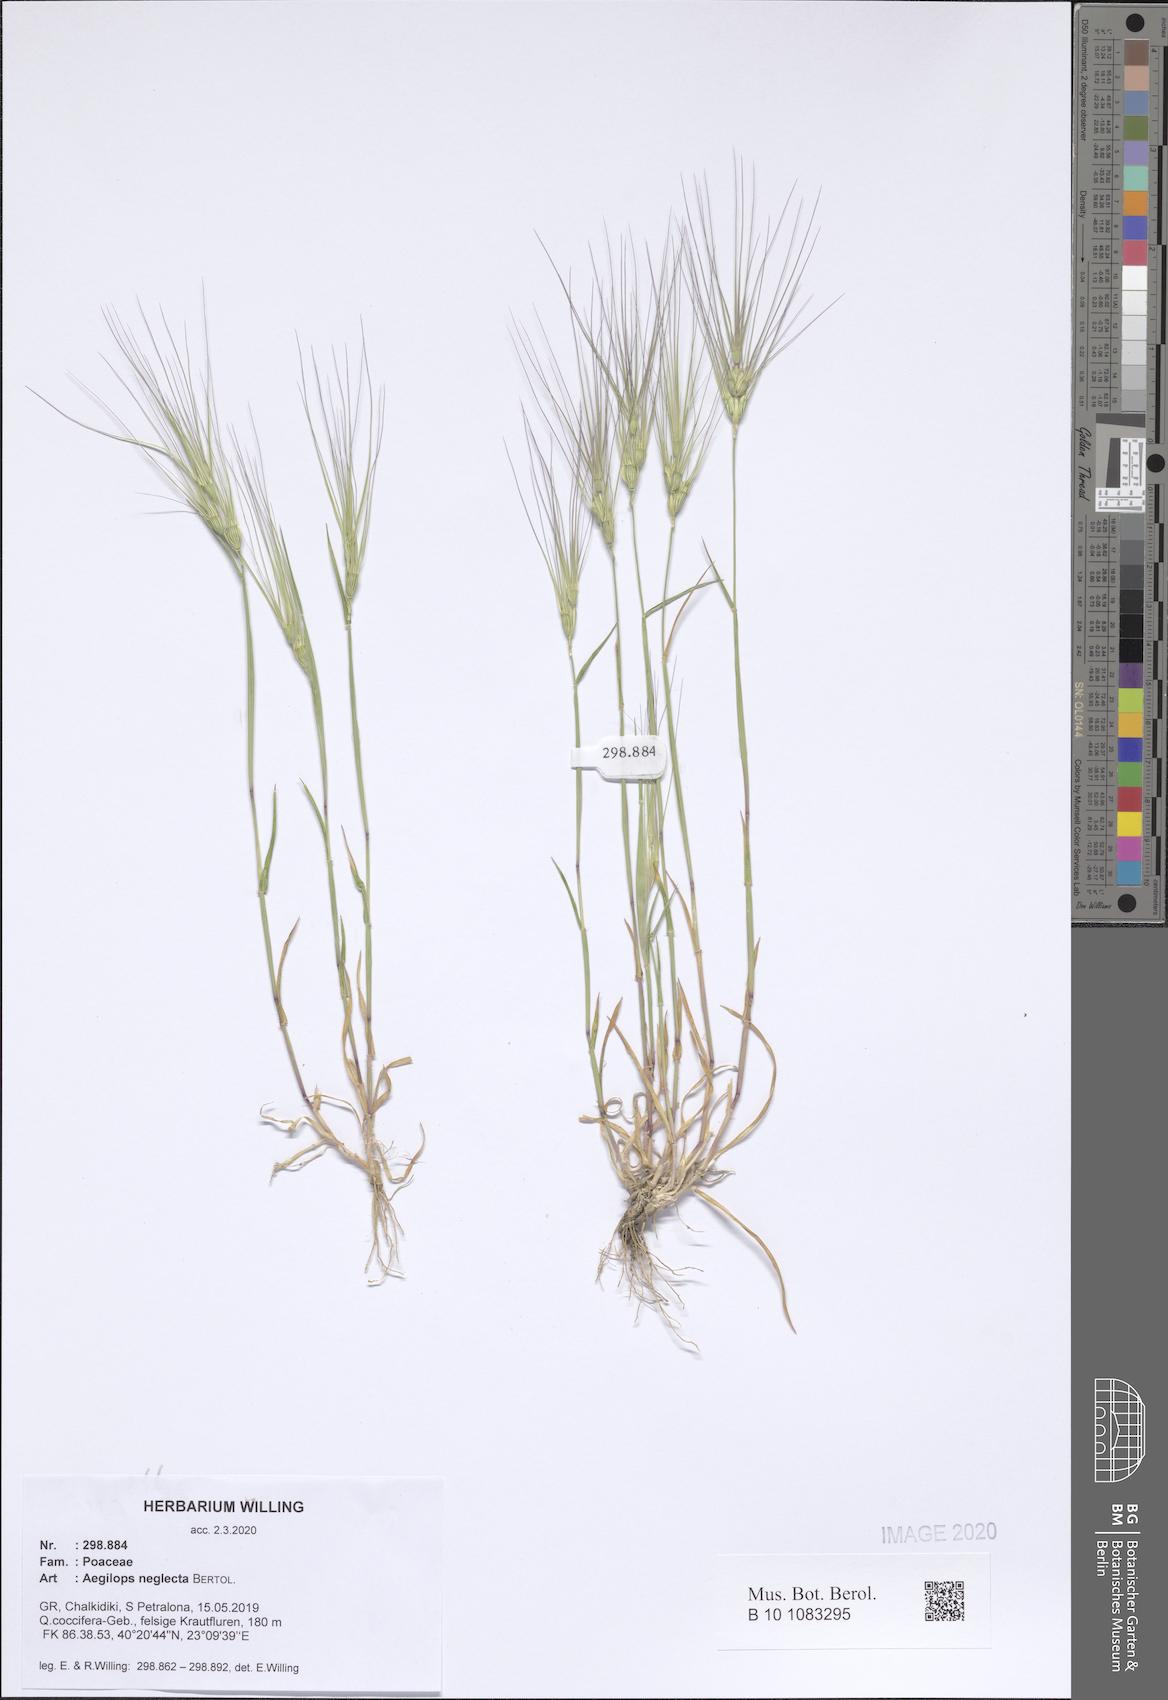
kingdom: Plantae
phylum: Tracheophyta
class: Liliopsida
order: Poales
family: Poaceae
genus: Aegilops
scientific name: Aegilops neglecta
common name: Three-awn goat grass
